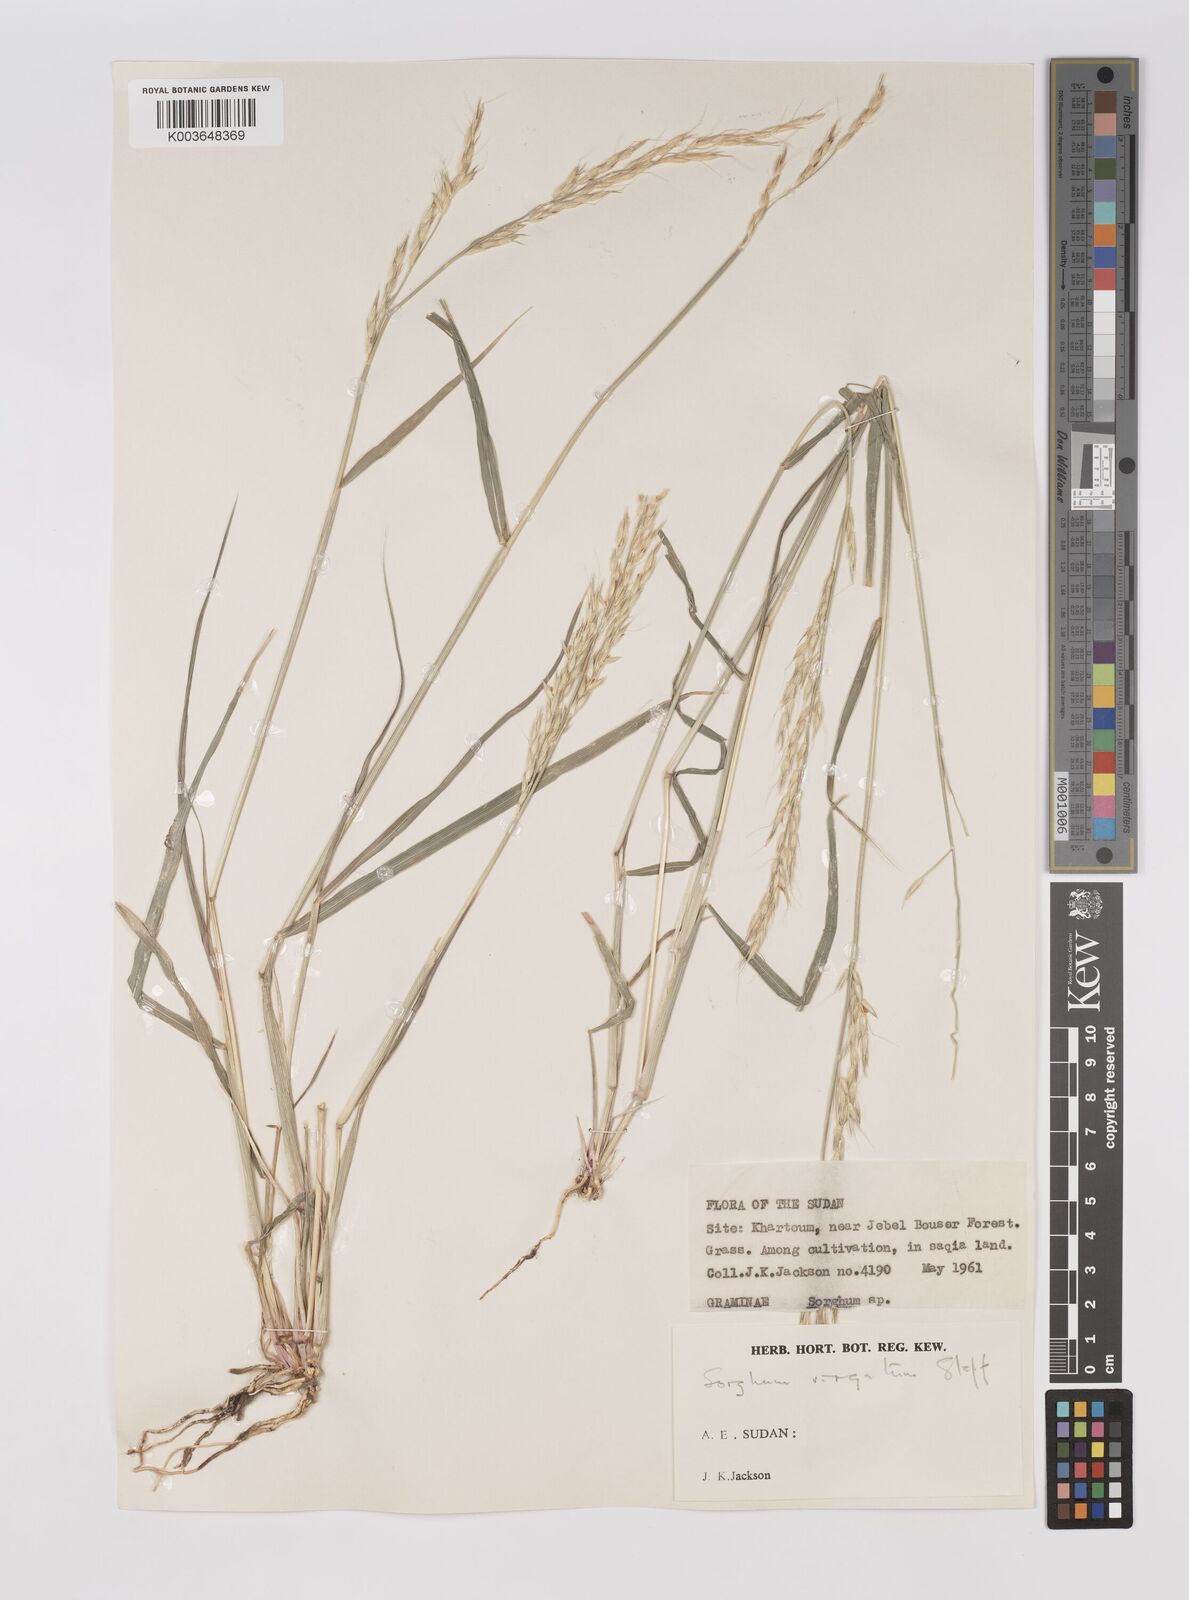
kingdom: Plantae
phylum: Tracheophyta
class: Liliopsida
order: Poales
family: Poaceae
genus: Sorghum
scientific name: Sorghum virgatum
